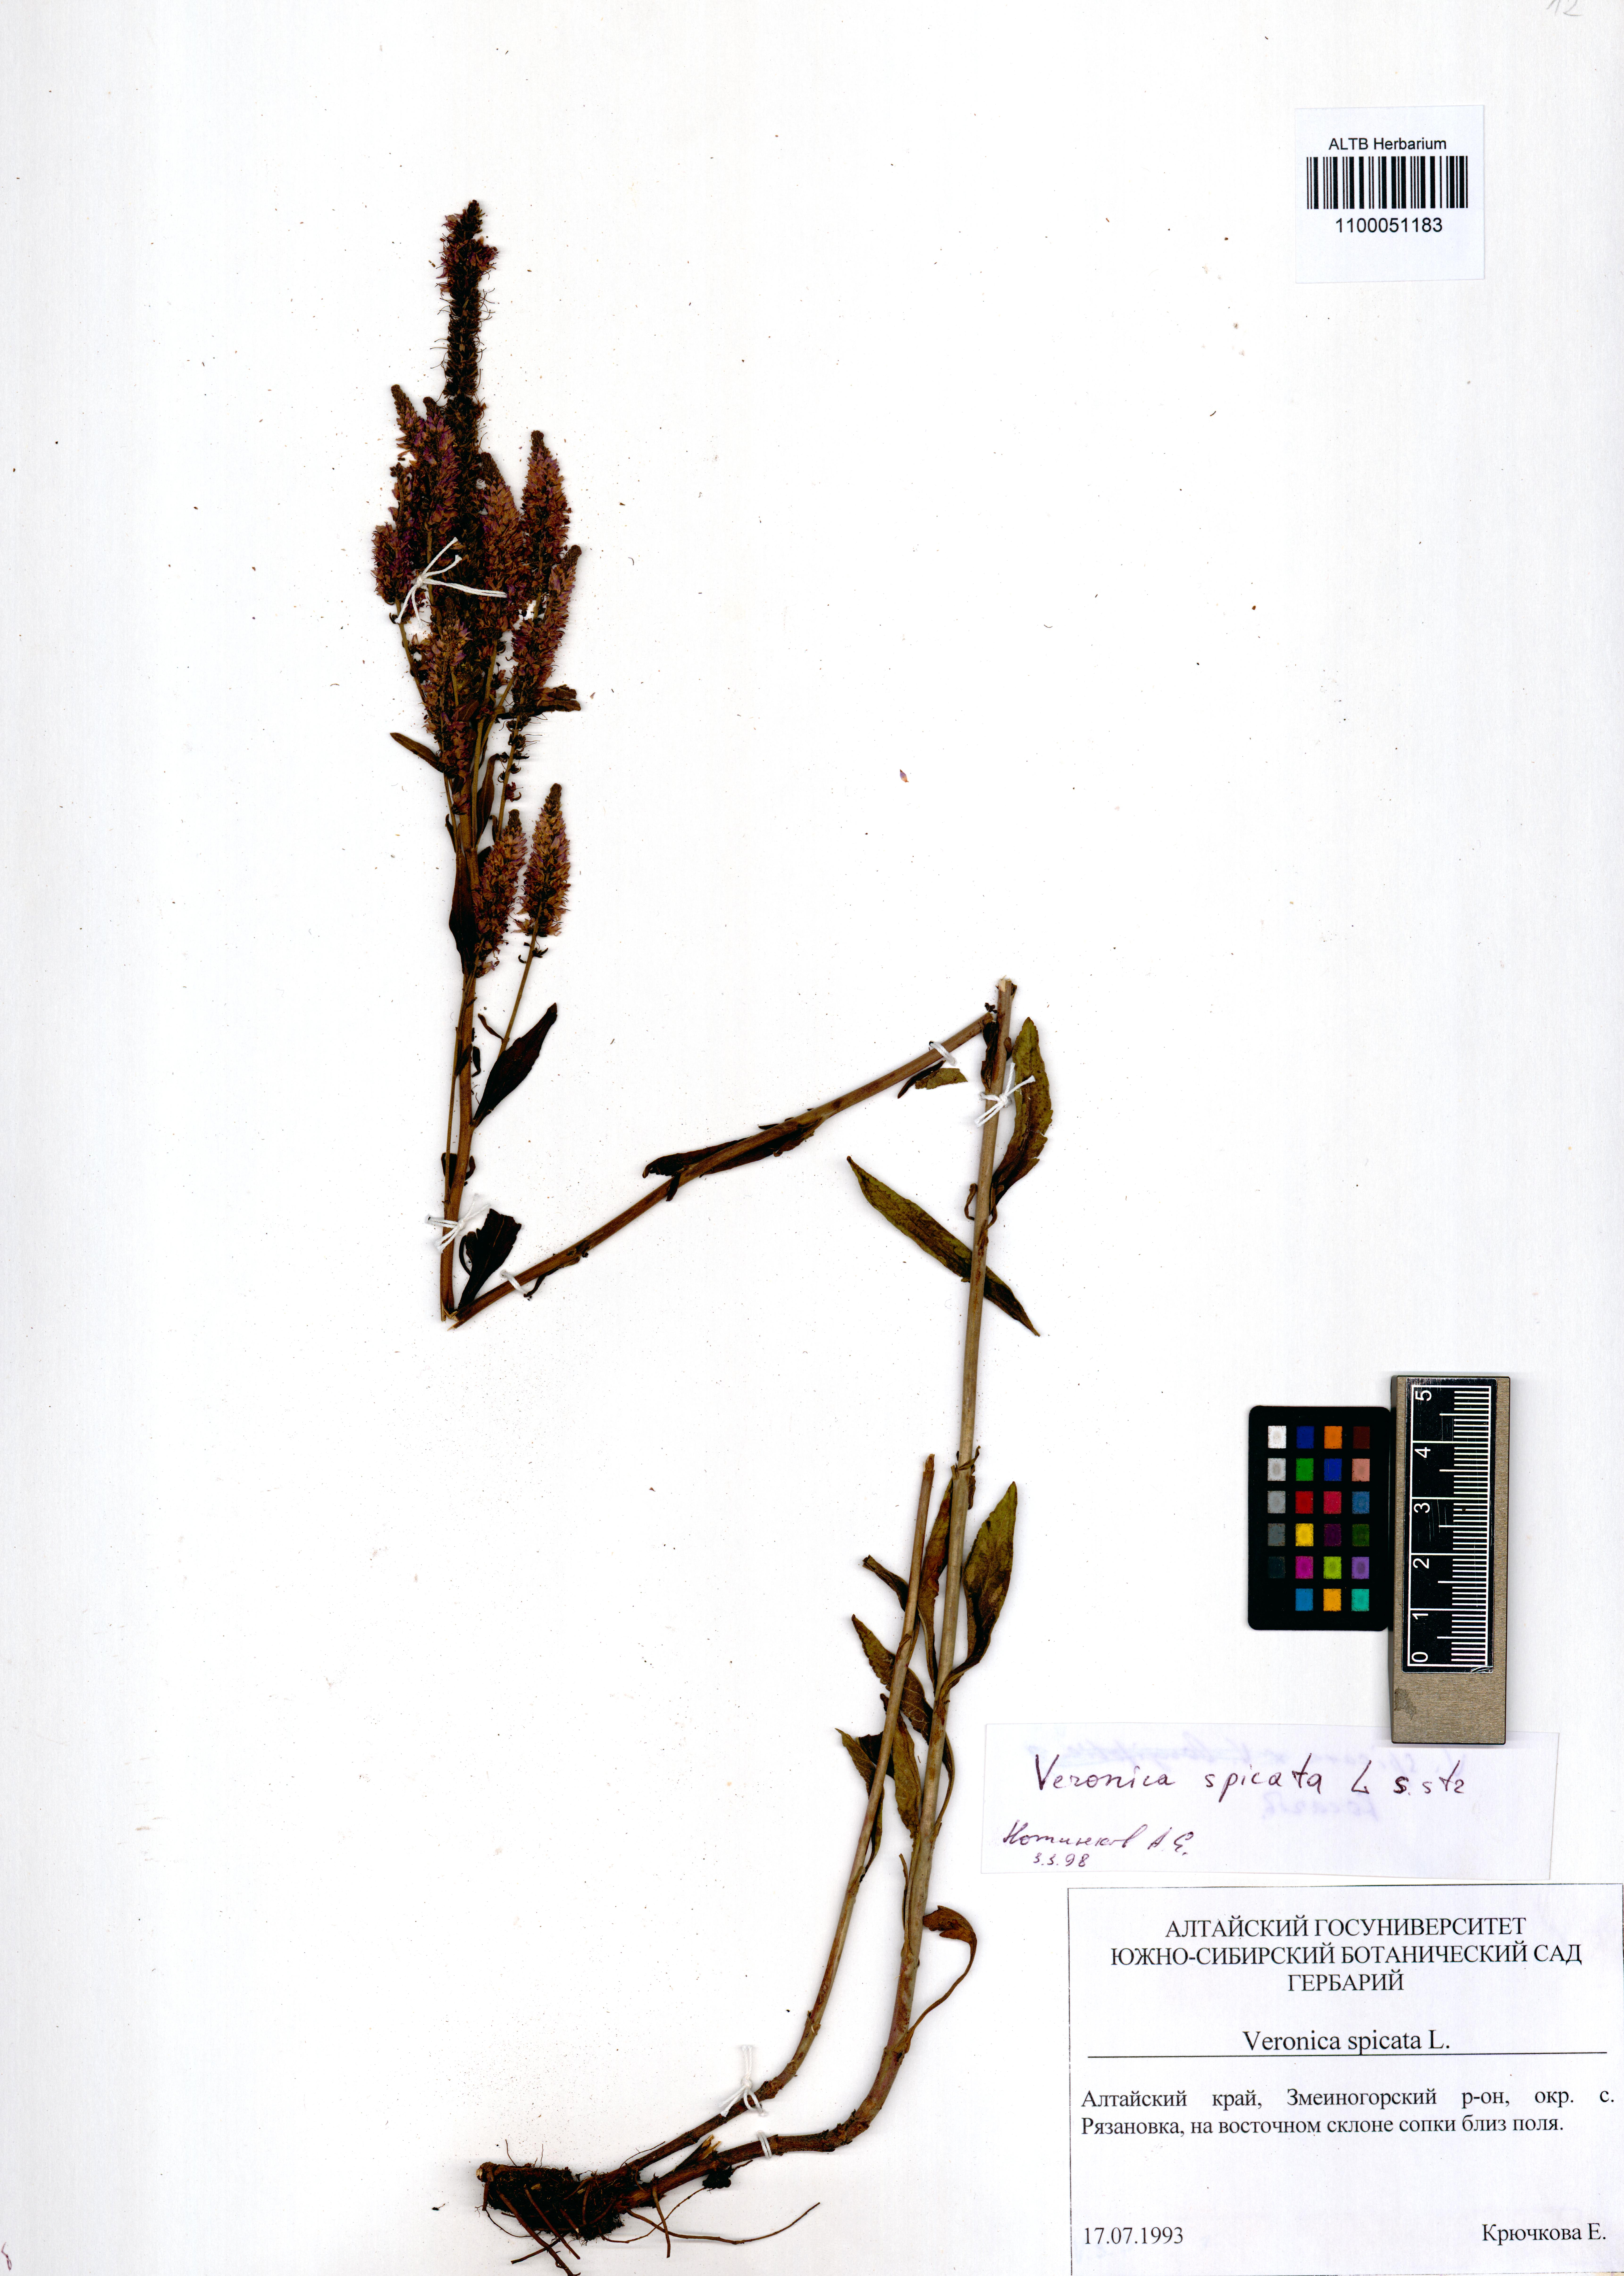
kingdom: Plantae
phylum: Tracheophyta
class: Magnoliopsida
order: Lamiales
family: Plantaginaceae
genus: Veronica
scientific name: Veronica spicata
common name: Spiked speedwell
